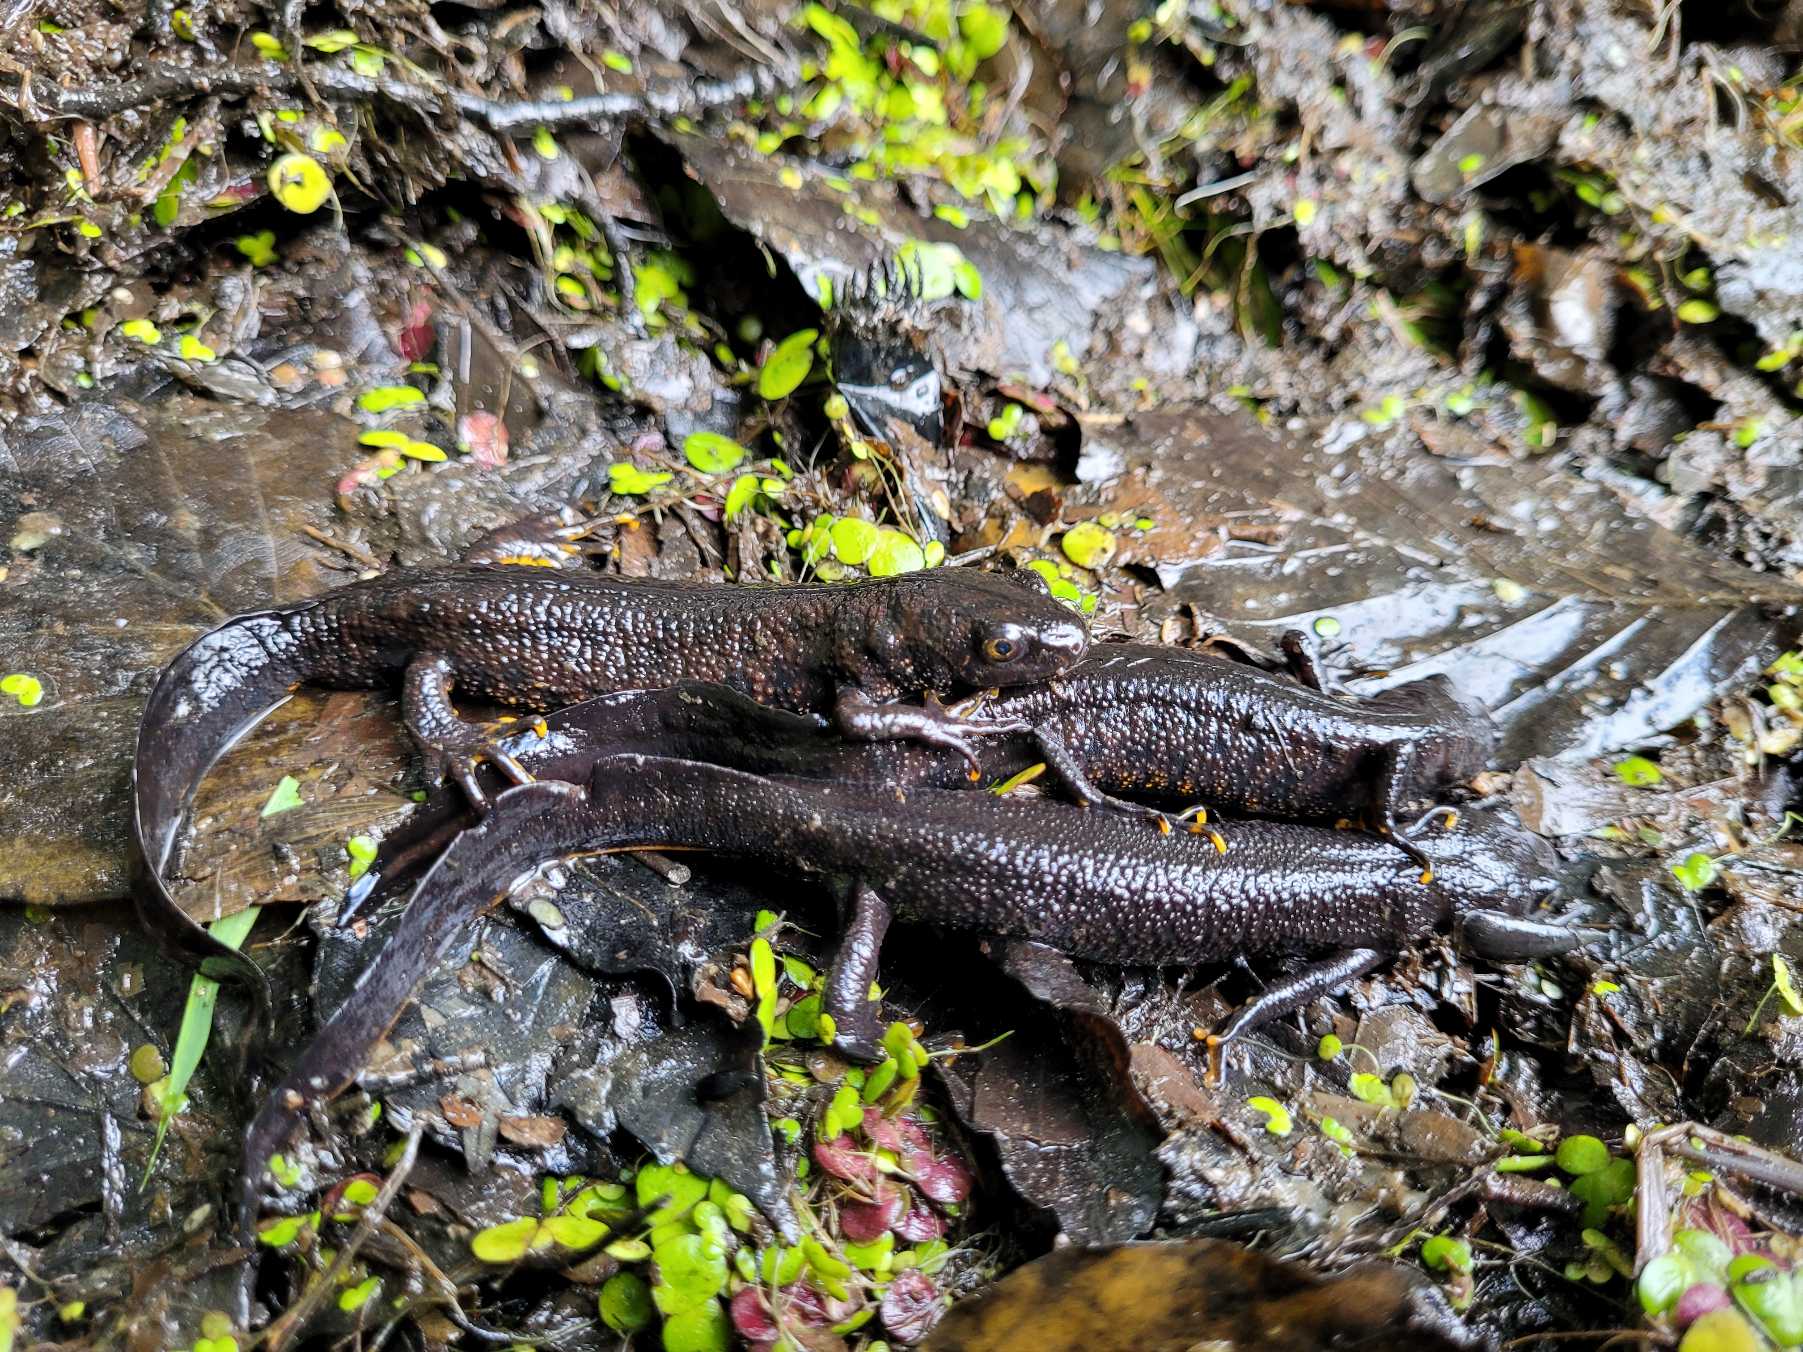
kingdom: Animalia
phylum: Chordata
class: Amphibia
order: Caudata
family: Salamandridae
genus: Triturus
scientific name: Triturus cristatus
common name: Stor vandsalamander
